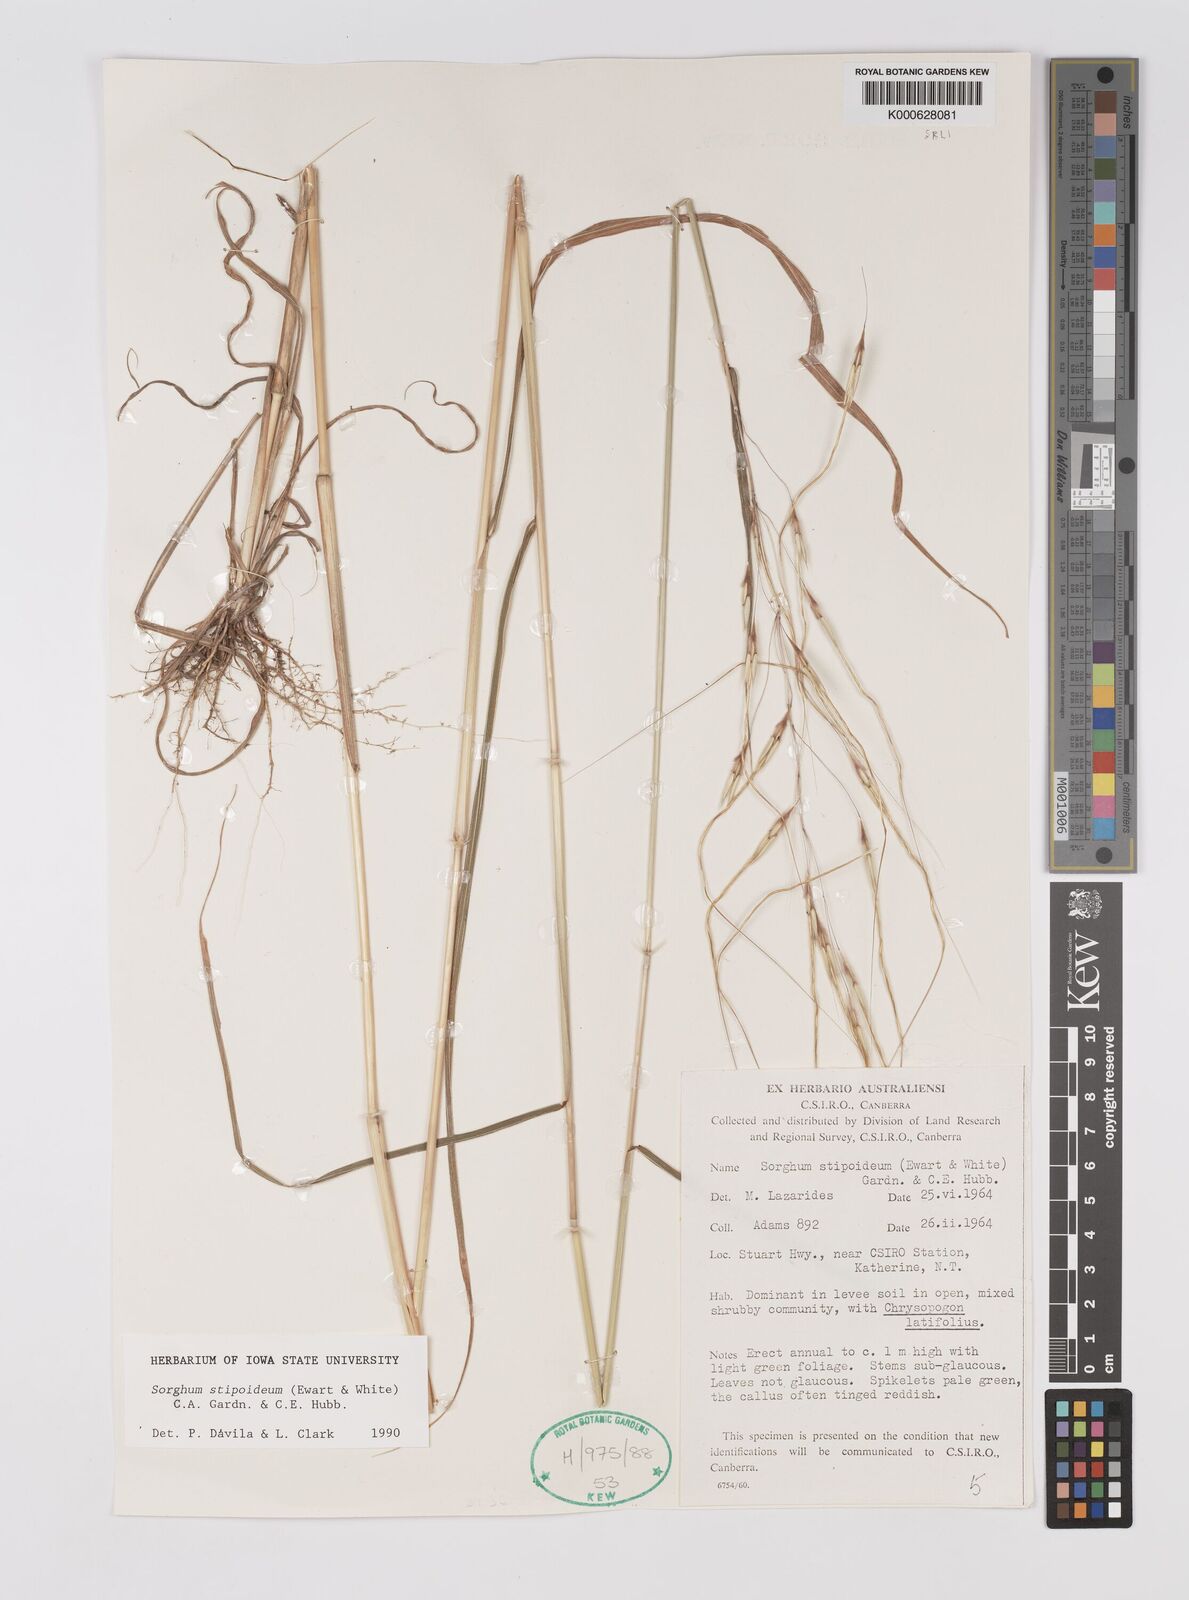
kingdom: Plantae
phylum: Tracheophyta
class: Liliopsida
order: Poales
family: Poaceae
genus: Sarga
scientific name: Sarga stipoidea
